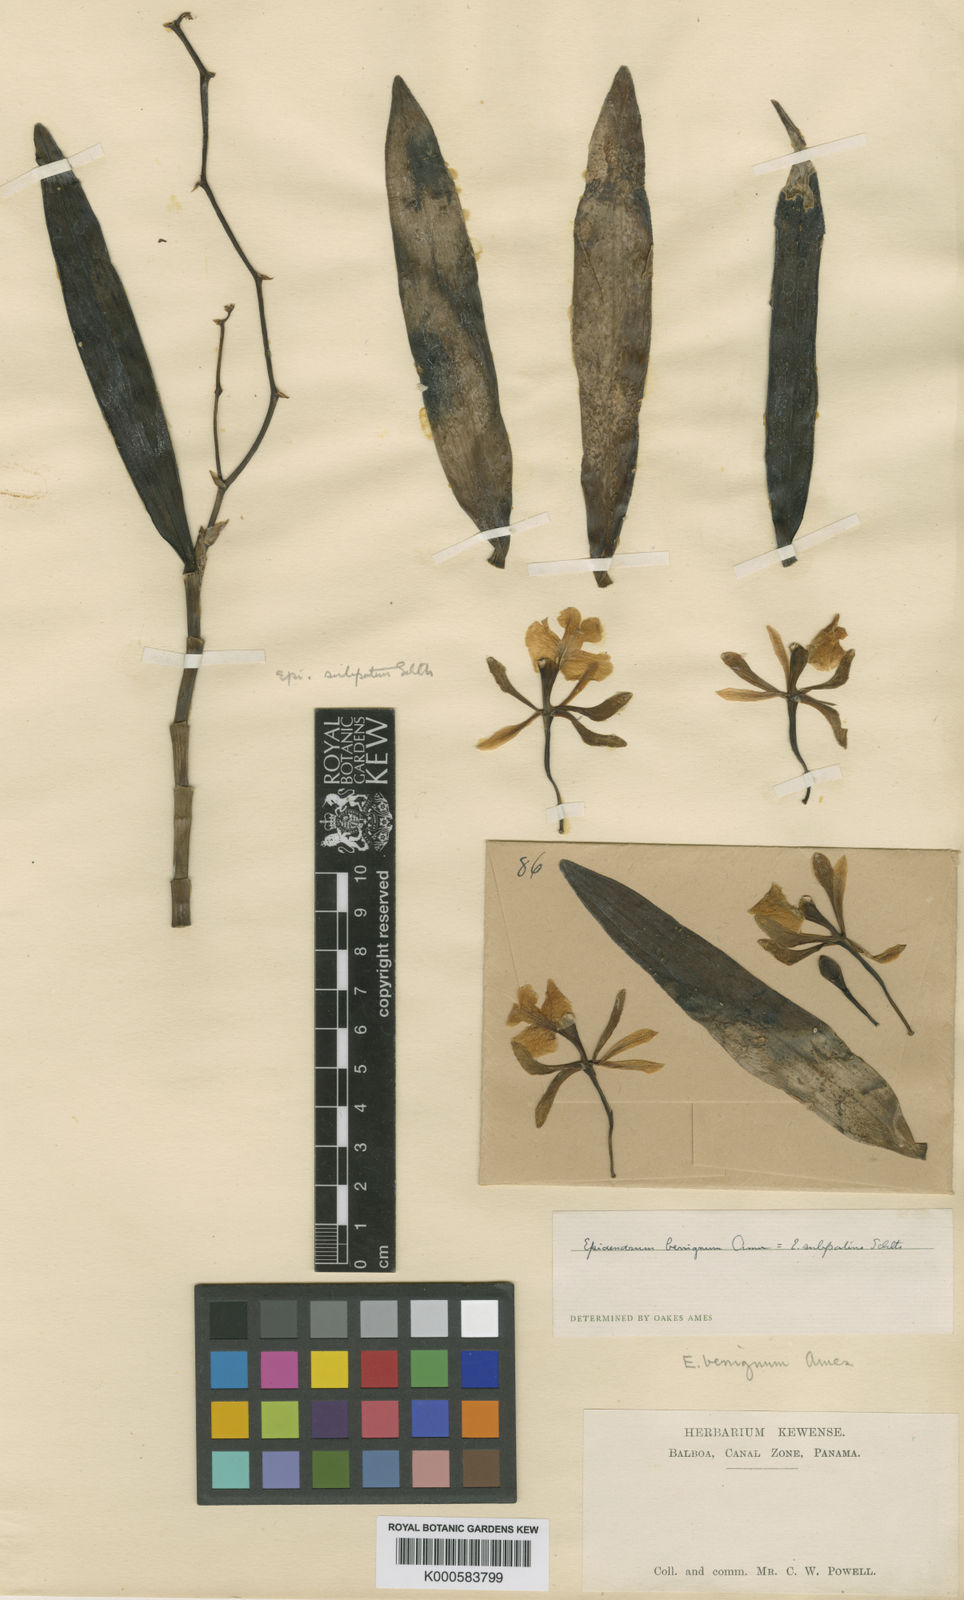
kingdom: Plantae
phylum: Tracheophyta
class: Liliopsida
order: Asparagales
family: Orchidaceae
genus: Epidendrum
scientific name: Epidendrum
